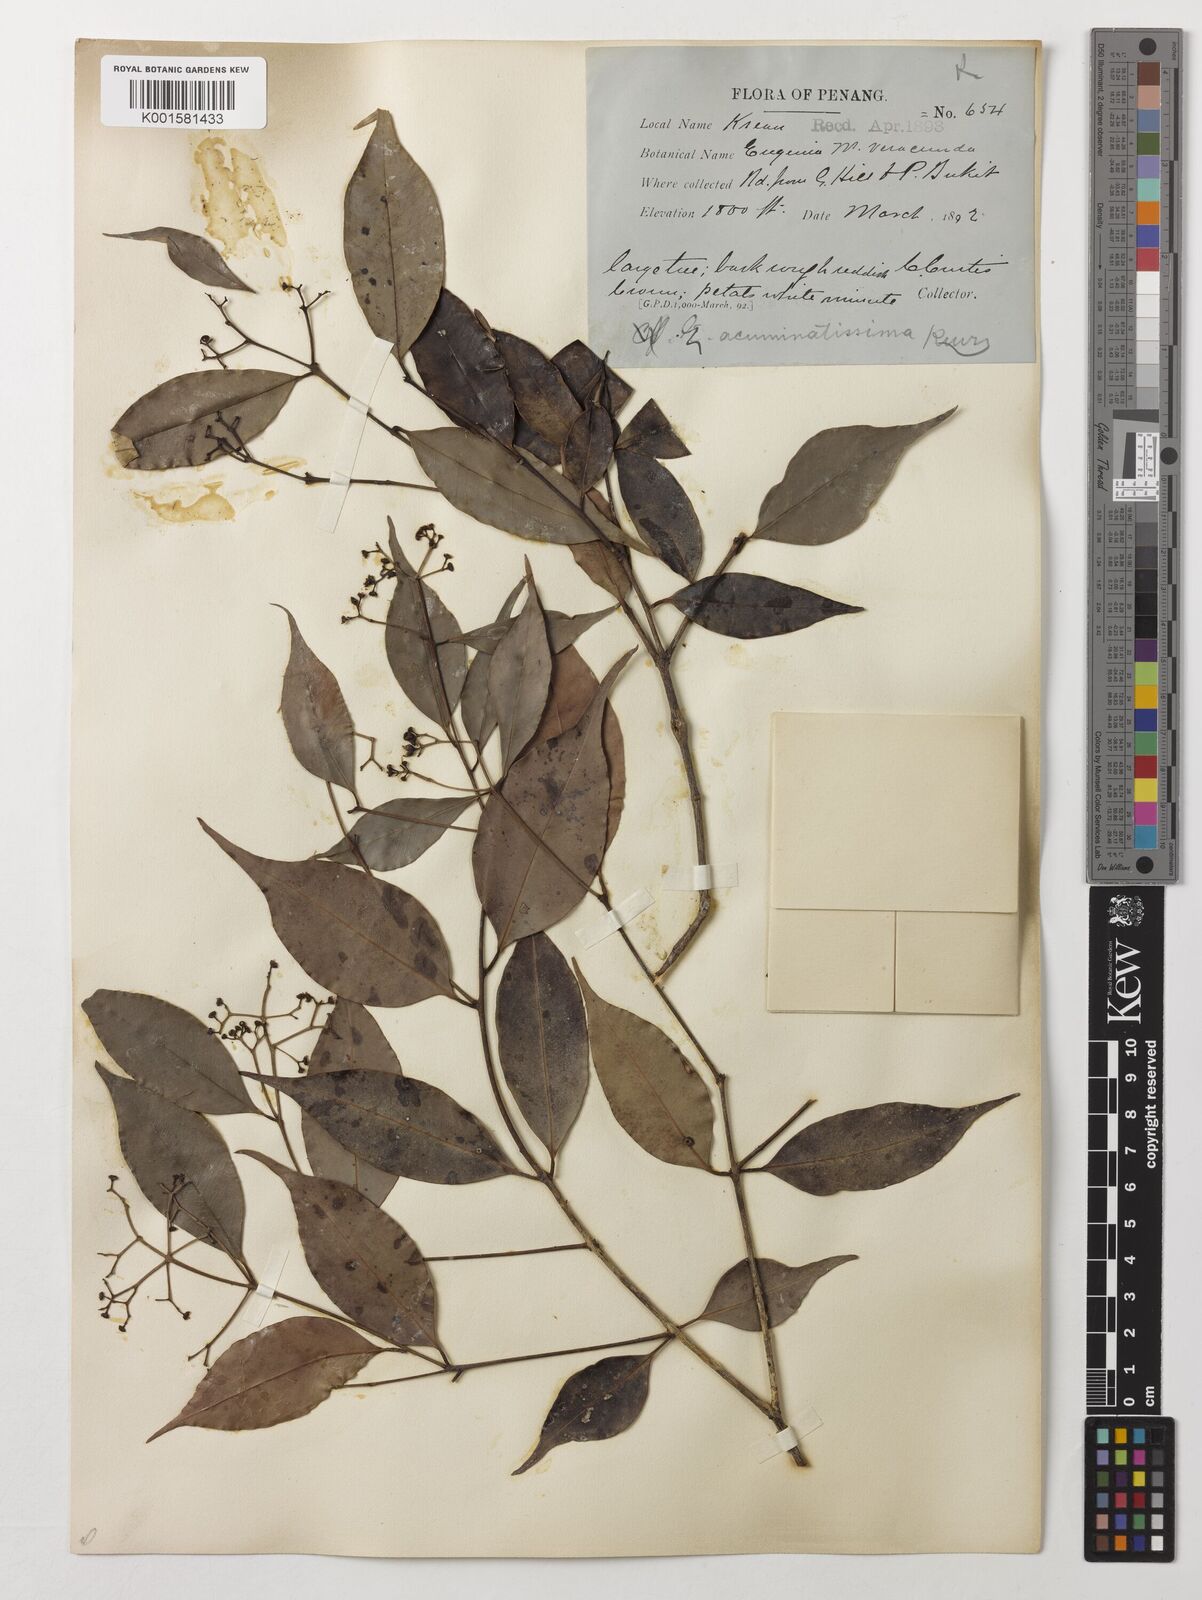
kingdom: Plantae
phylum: Tracheophyta
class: Magnoliopsida
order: Myrtales
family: Myrtaceae
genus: Eugenia
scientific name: Eugenia biflora
